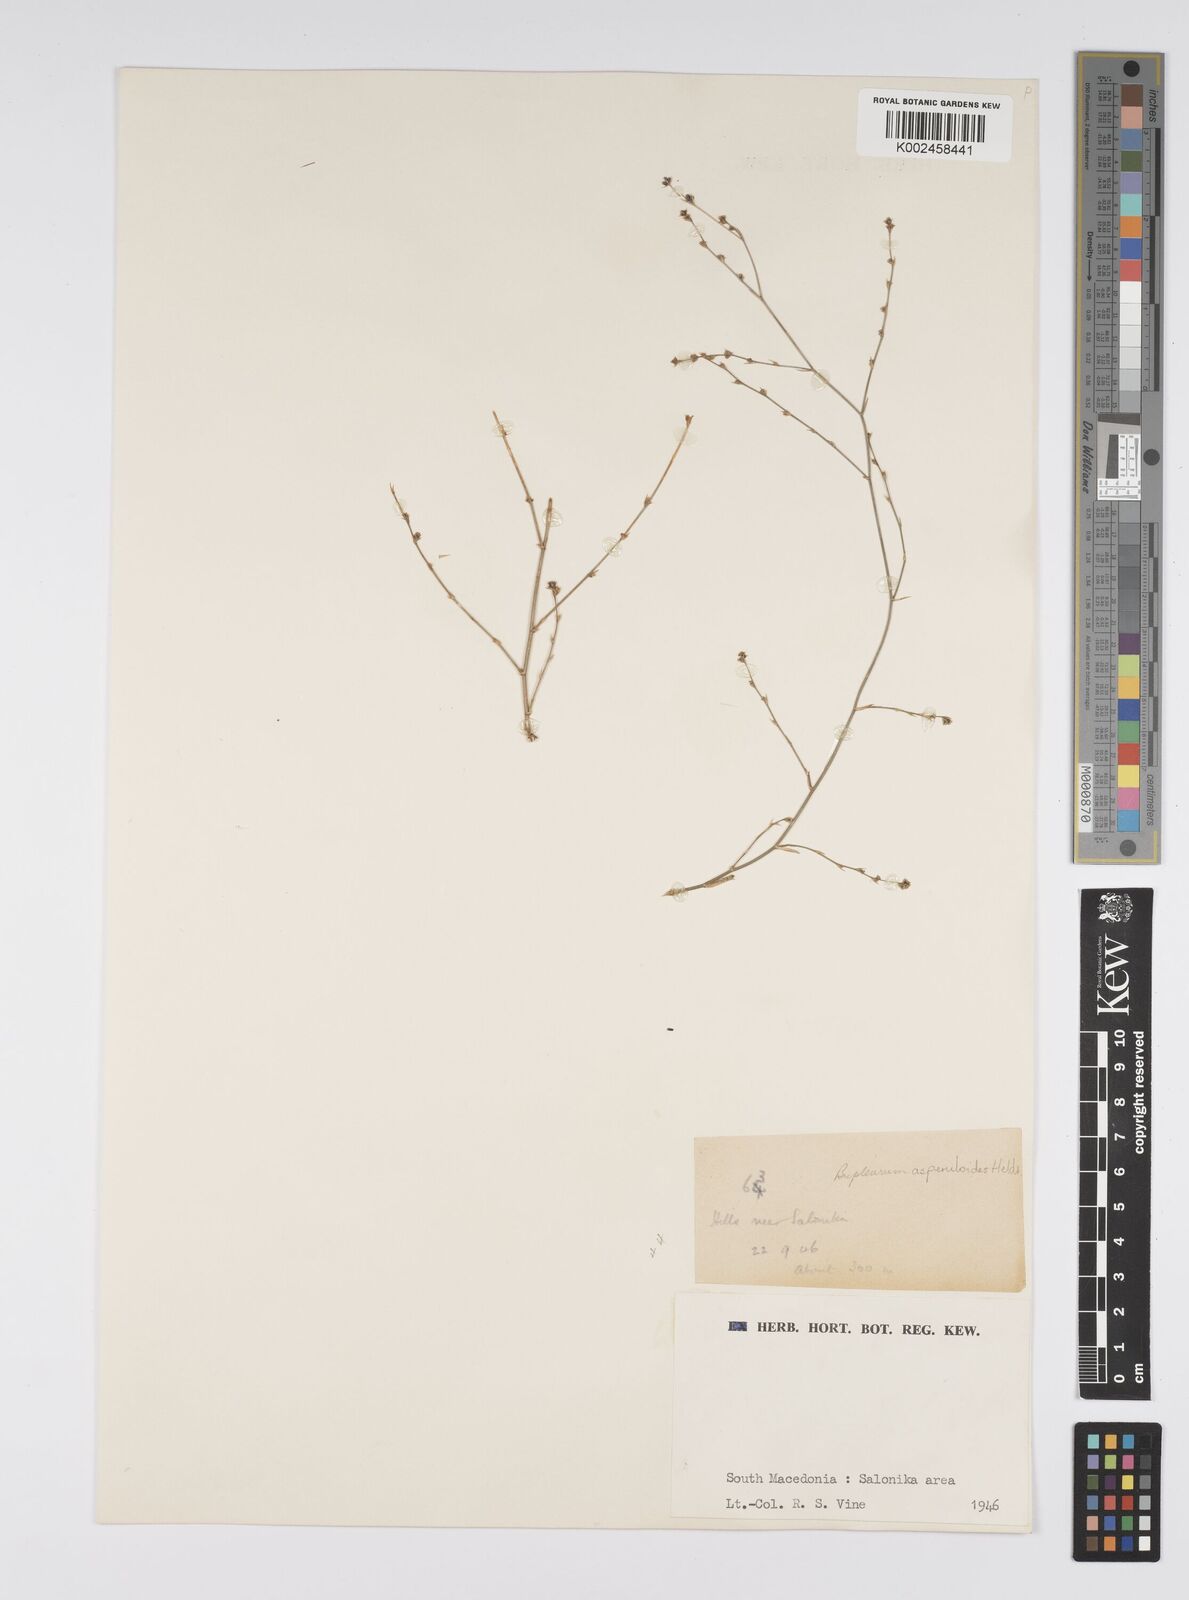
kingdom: Plantae
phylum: Tracheophyta
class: Magnoliopsida
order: Apiales
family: Apiaceae
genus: Bupleurum
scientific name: Bupleurum asperuloides
